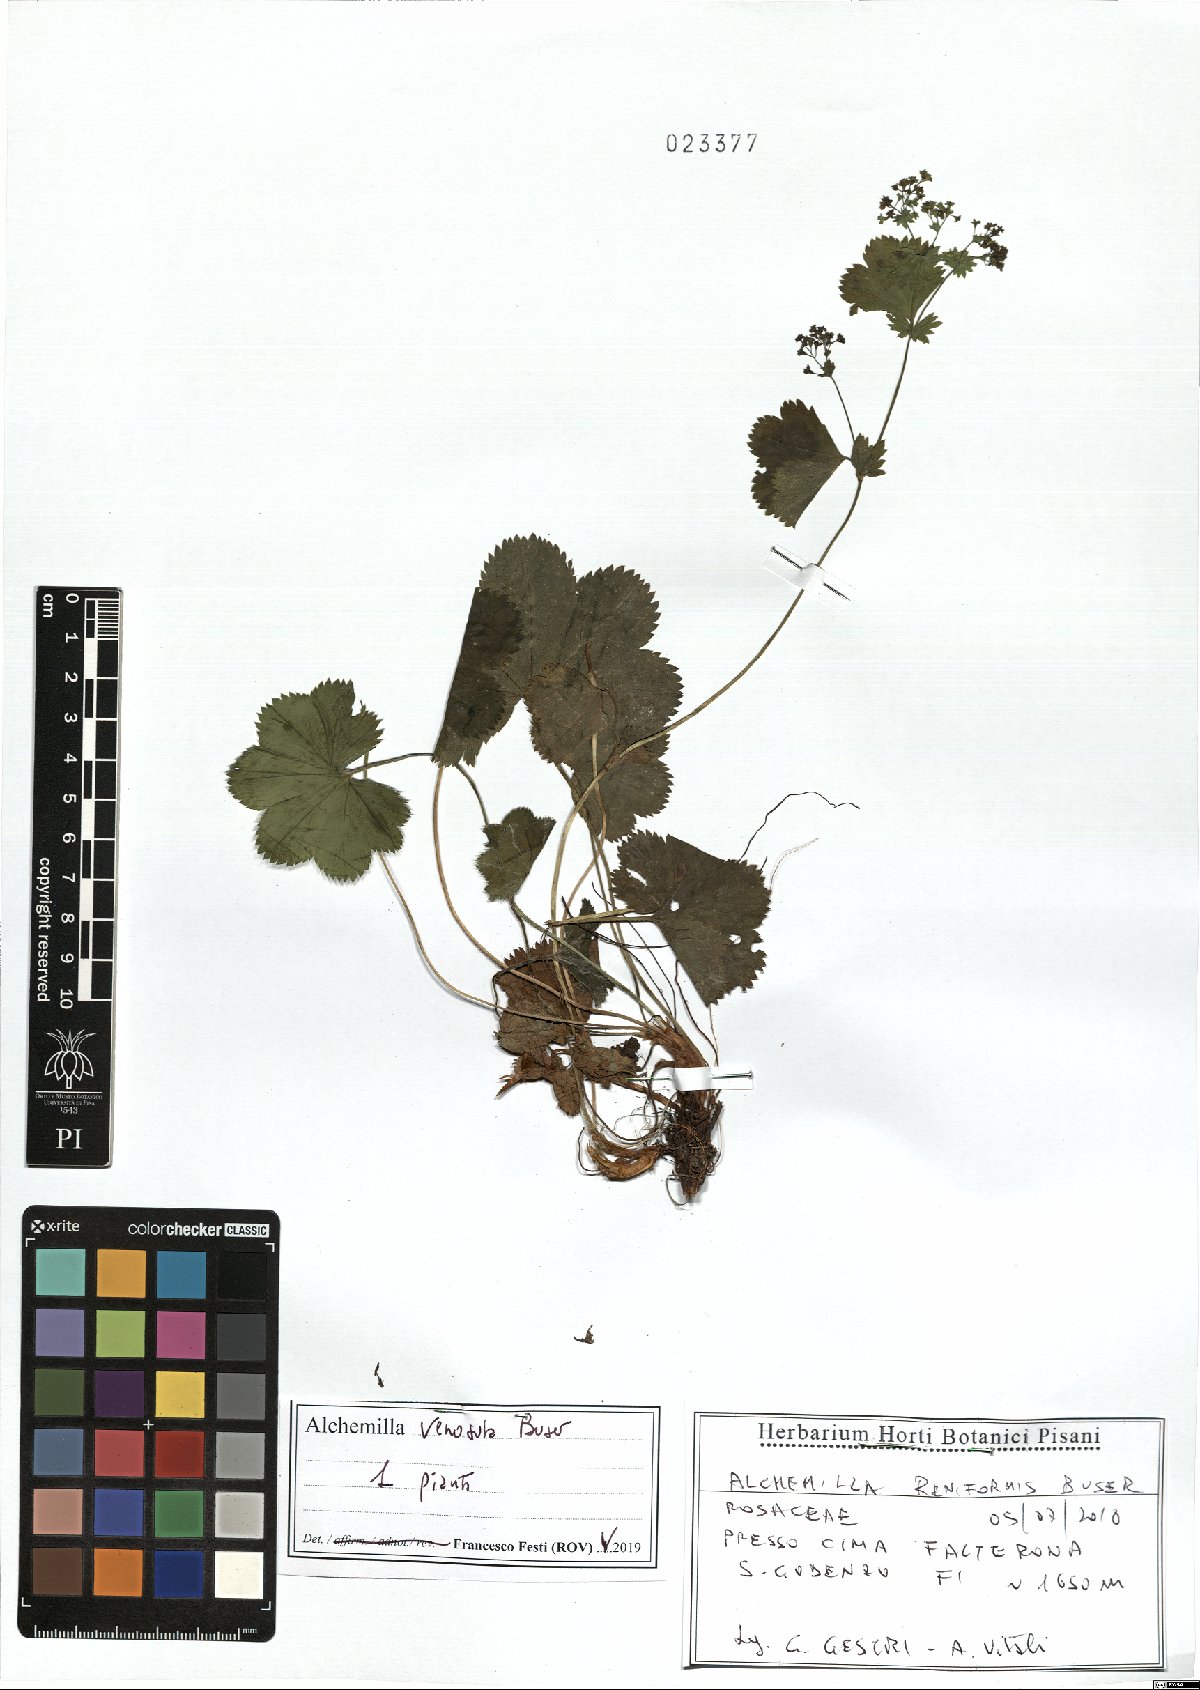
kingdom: Plantae
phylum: Tracheophyta
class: Magnoliopsida
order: Rosales
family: Rosaceae
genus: Alchemilla
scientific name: Alchemilla venosula
